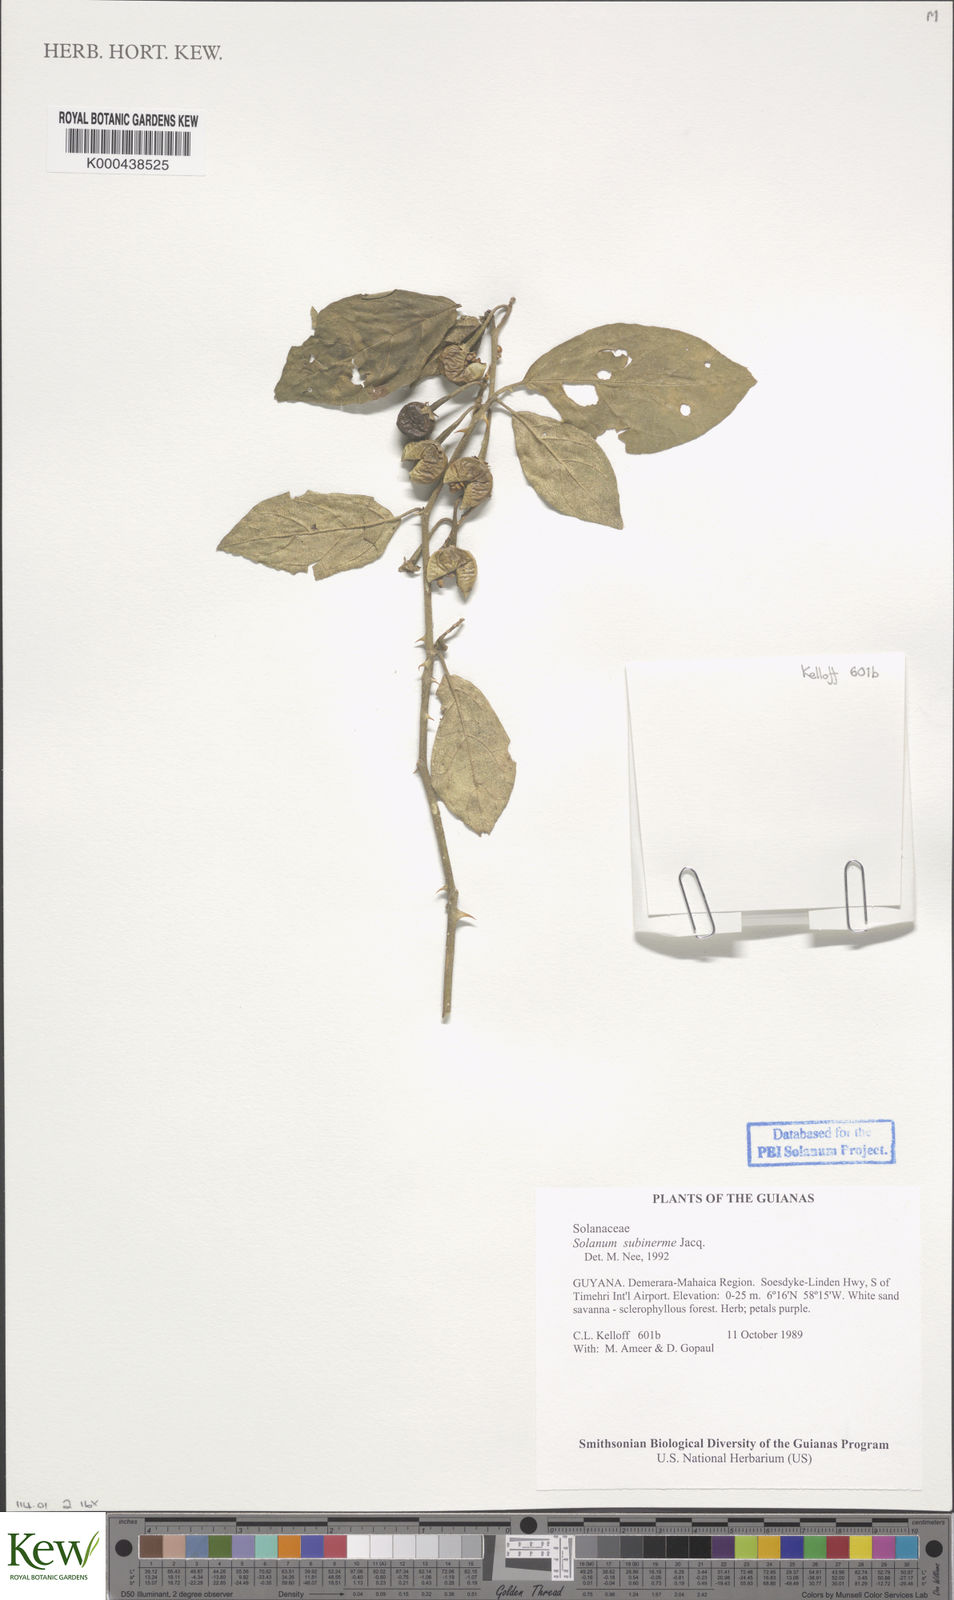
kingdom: Plantae
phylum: Tracheophyta
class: Magnoliopsida
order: Solanales
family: Solanaceae
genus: Solanum
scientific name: Solanum subinerme
